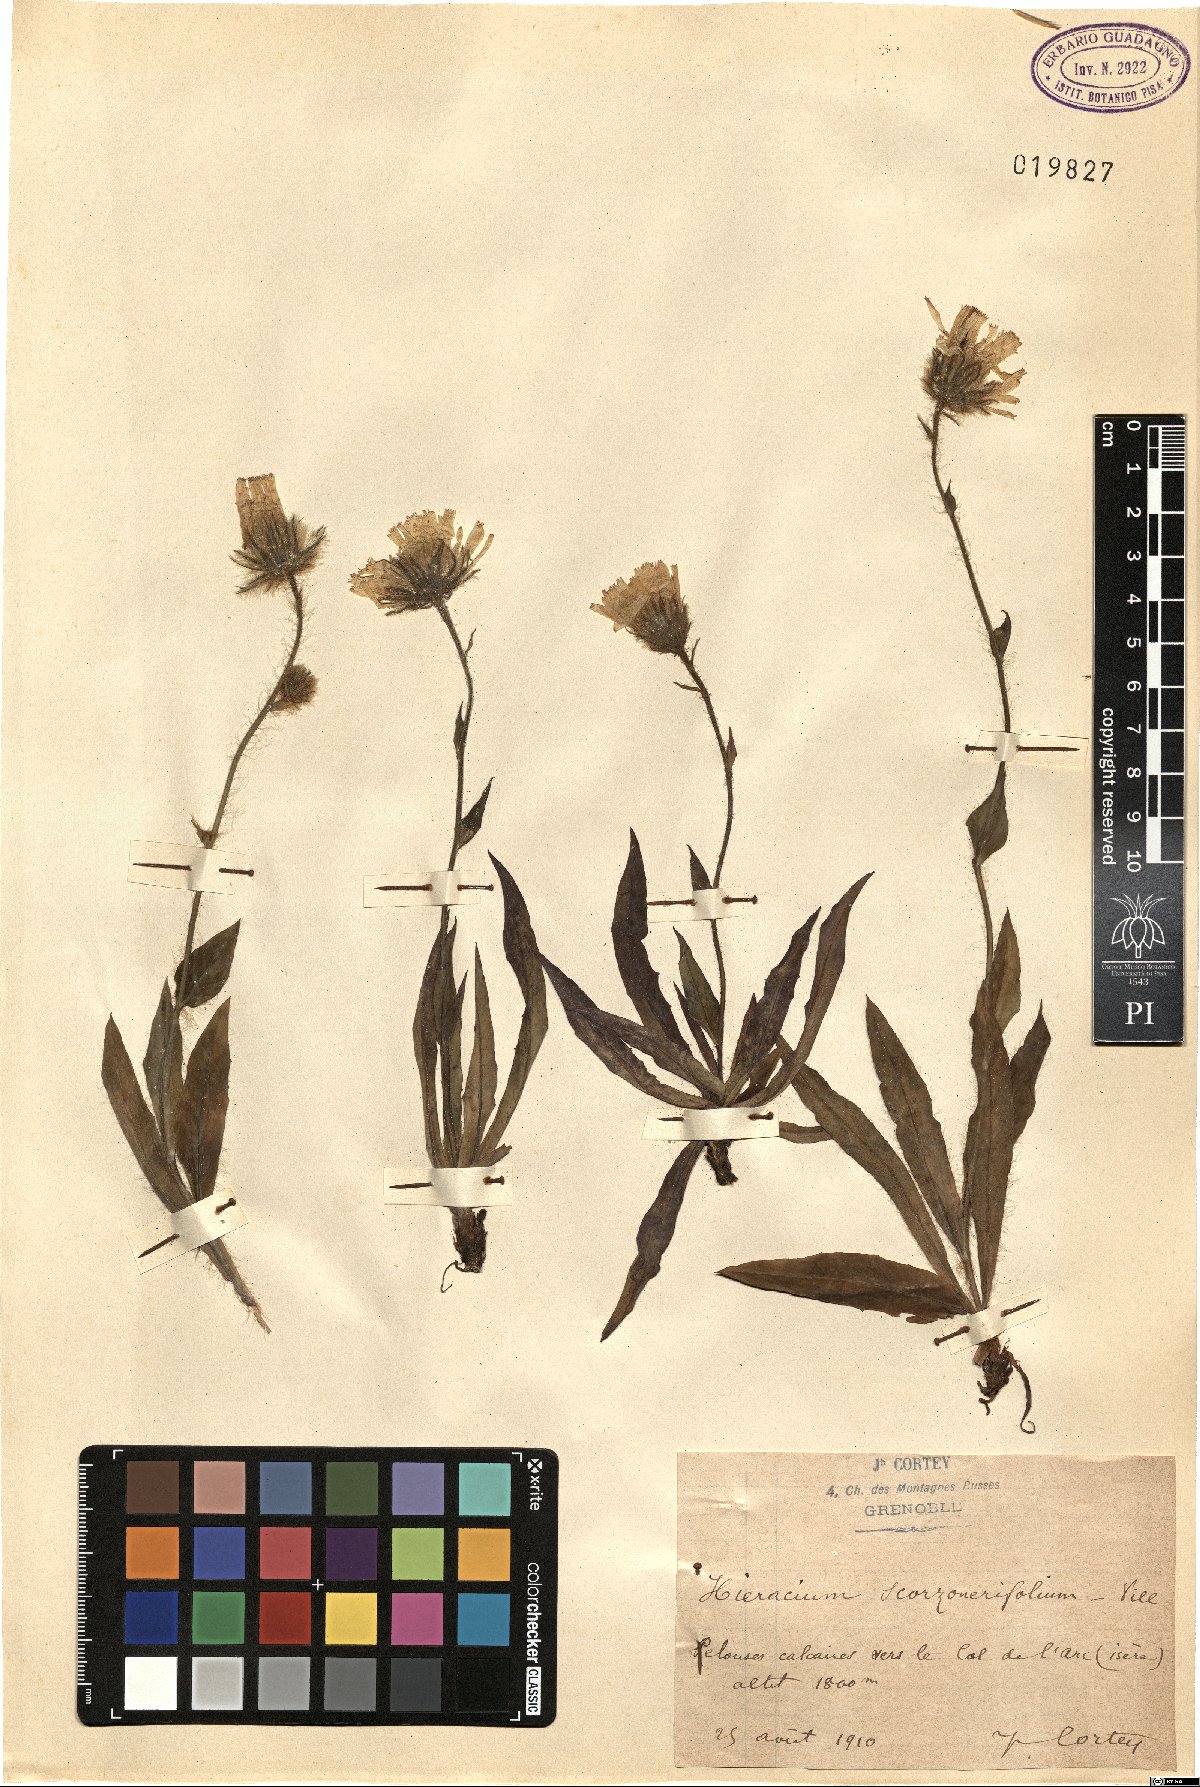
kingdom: Plantae
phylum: Tracheophyta
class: Magnoliopsida
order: Asterales
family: Asteraceae
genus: Hieracium
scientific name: Hieracium scorzonerifolium
